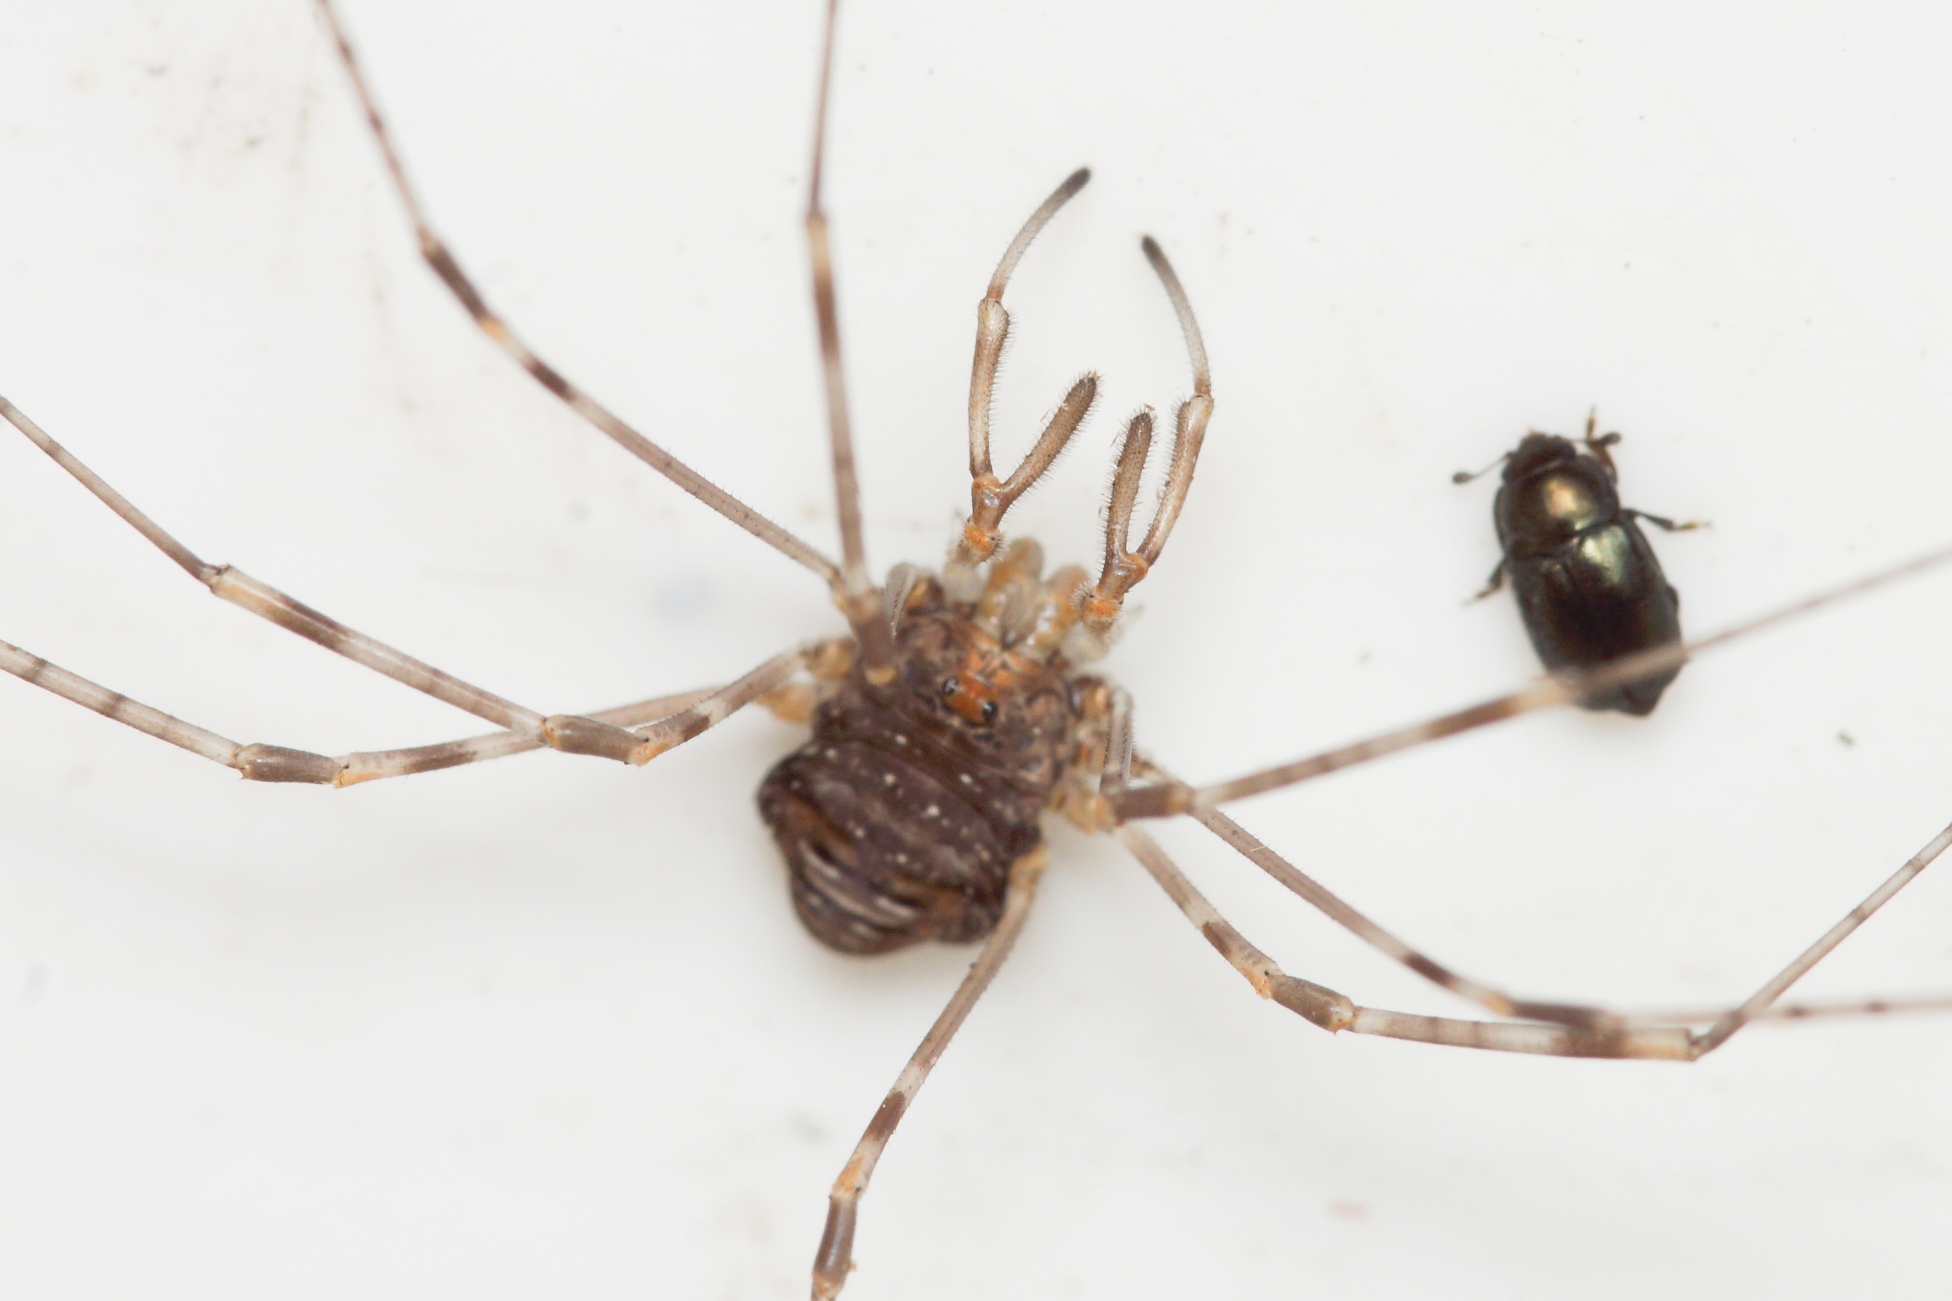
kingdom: Animalia
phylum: Arthropoda
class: Arachnida
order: Opiliones
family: Phalangiidae
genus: Dicranopalpus
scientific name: Dicranopalpus ramosus
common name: Gaffelmejer
